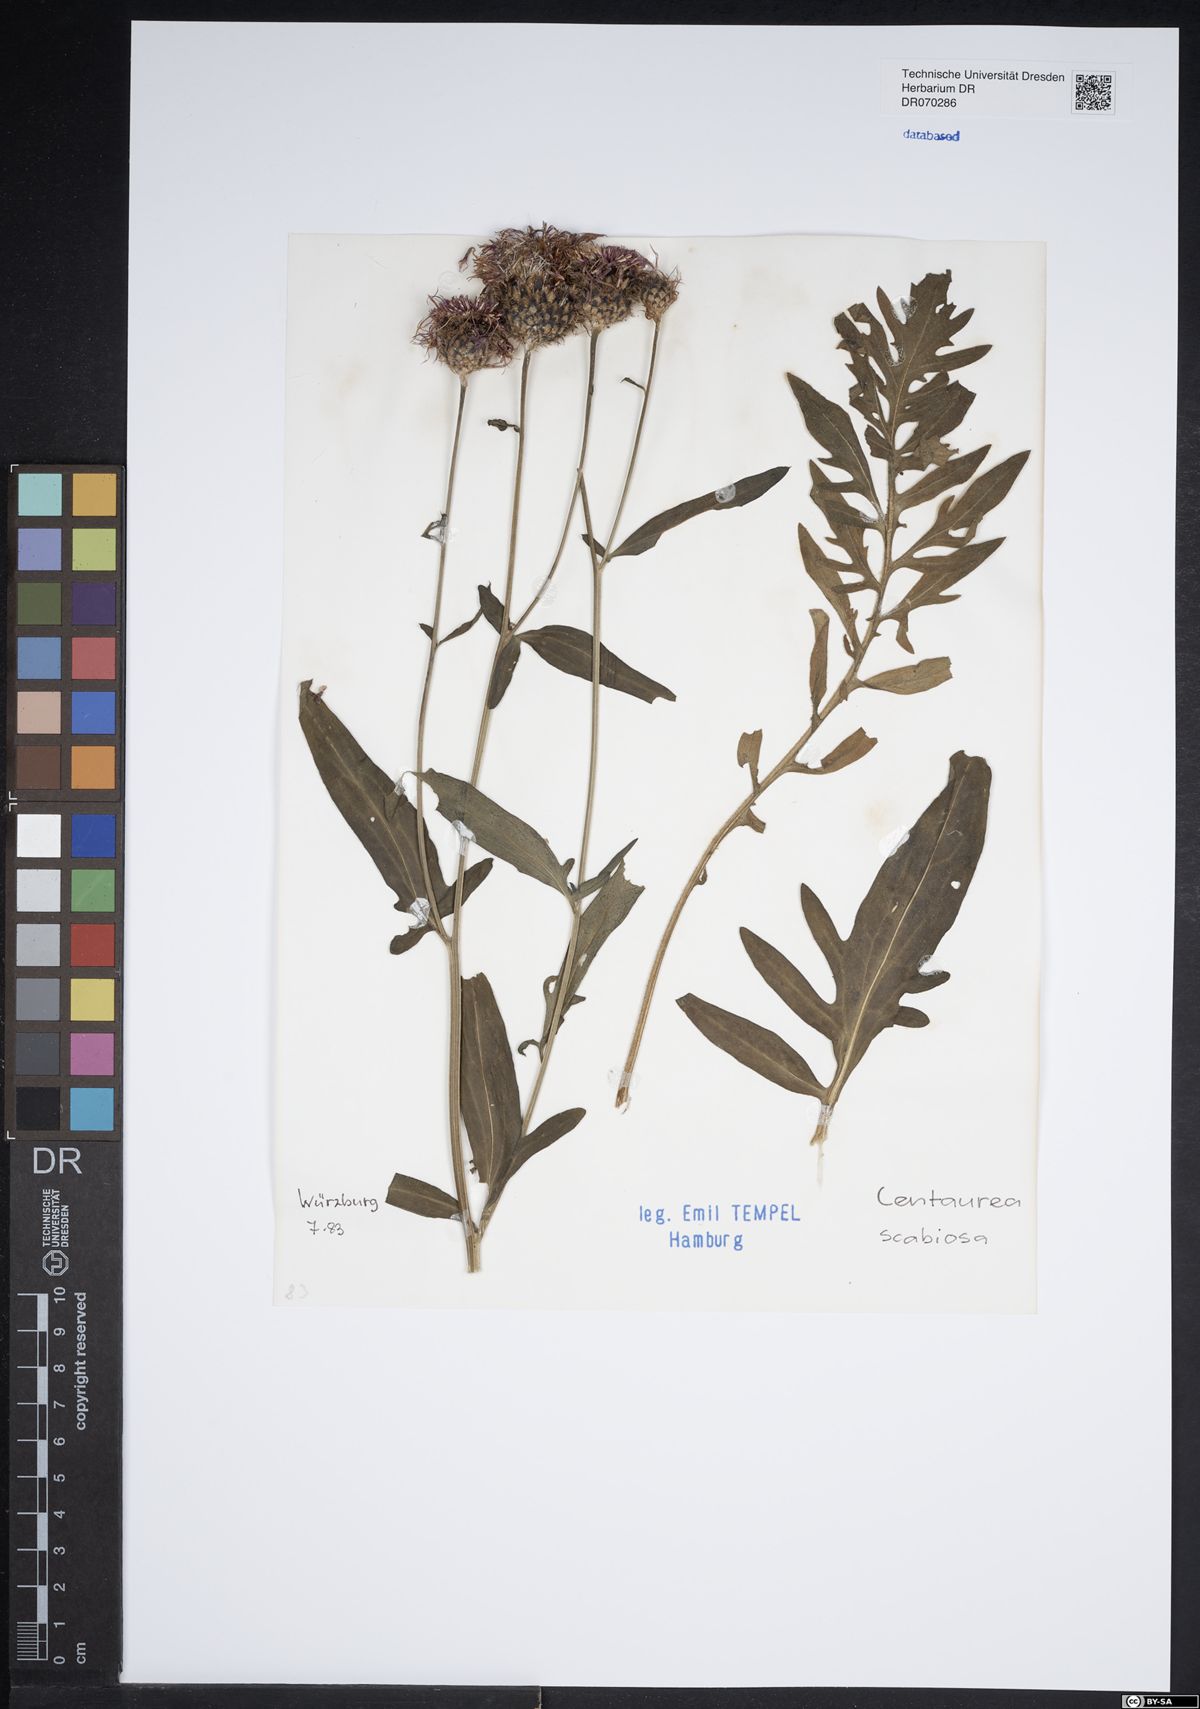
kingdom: Plantae
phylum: Tracheophyta
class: Magnoliopsida
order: Asterales
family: Asteraceae
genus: Centaurea
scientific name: Centaurea scabiosa
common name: Greater knapweed
